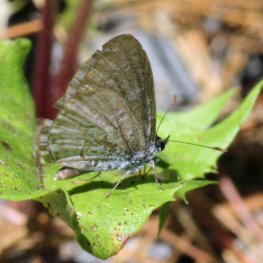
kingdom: Animalia
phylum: Arthropoda
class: Insecta
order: Lepidoptera
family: Lycaenidae
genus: Celastrina
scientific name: Celastrina serotina
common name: Cherry Gall Azure
